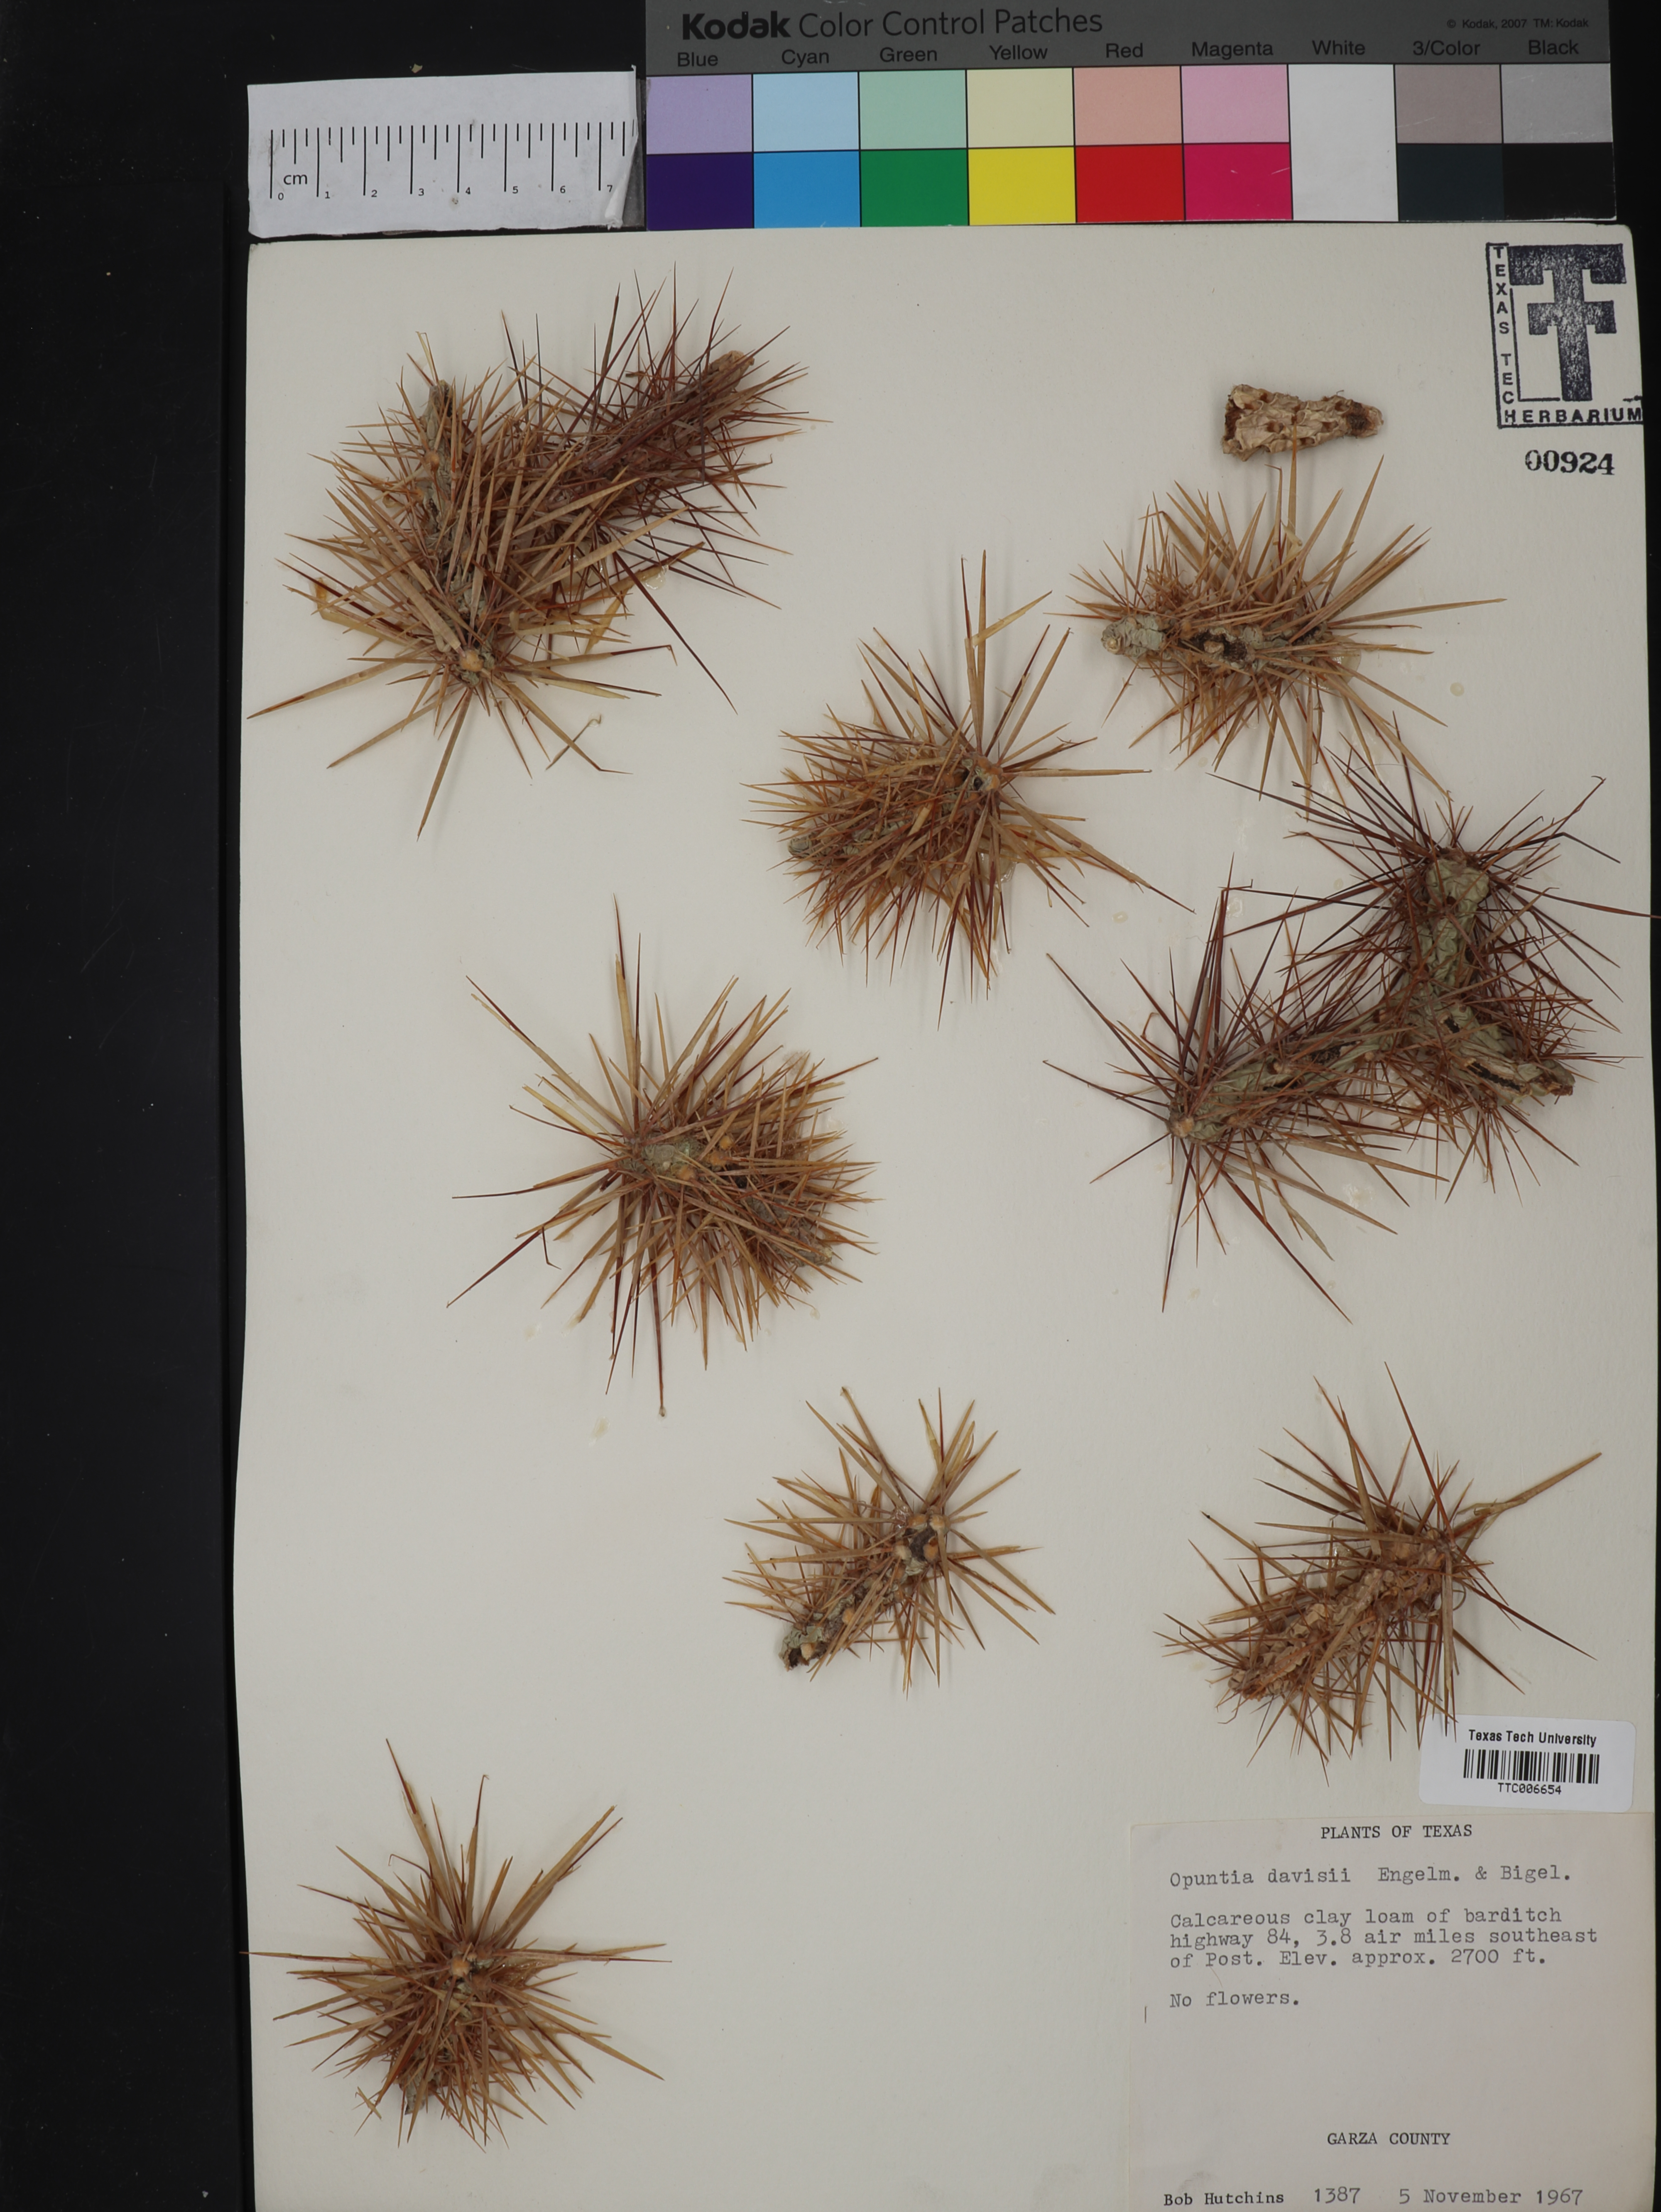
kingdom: Plantae
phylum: Tracheophyta
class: Magnoliopsida
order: Caryophyllales
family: Cactaceae
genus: Cylindropuntia
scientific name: Cylindropuntia davisii
